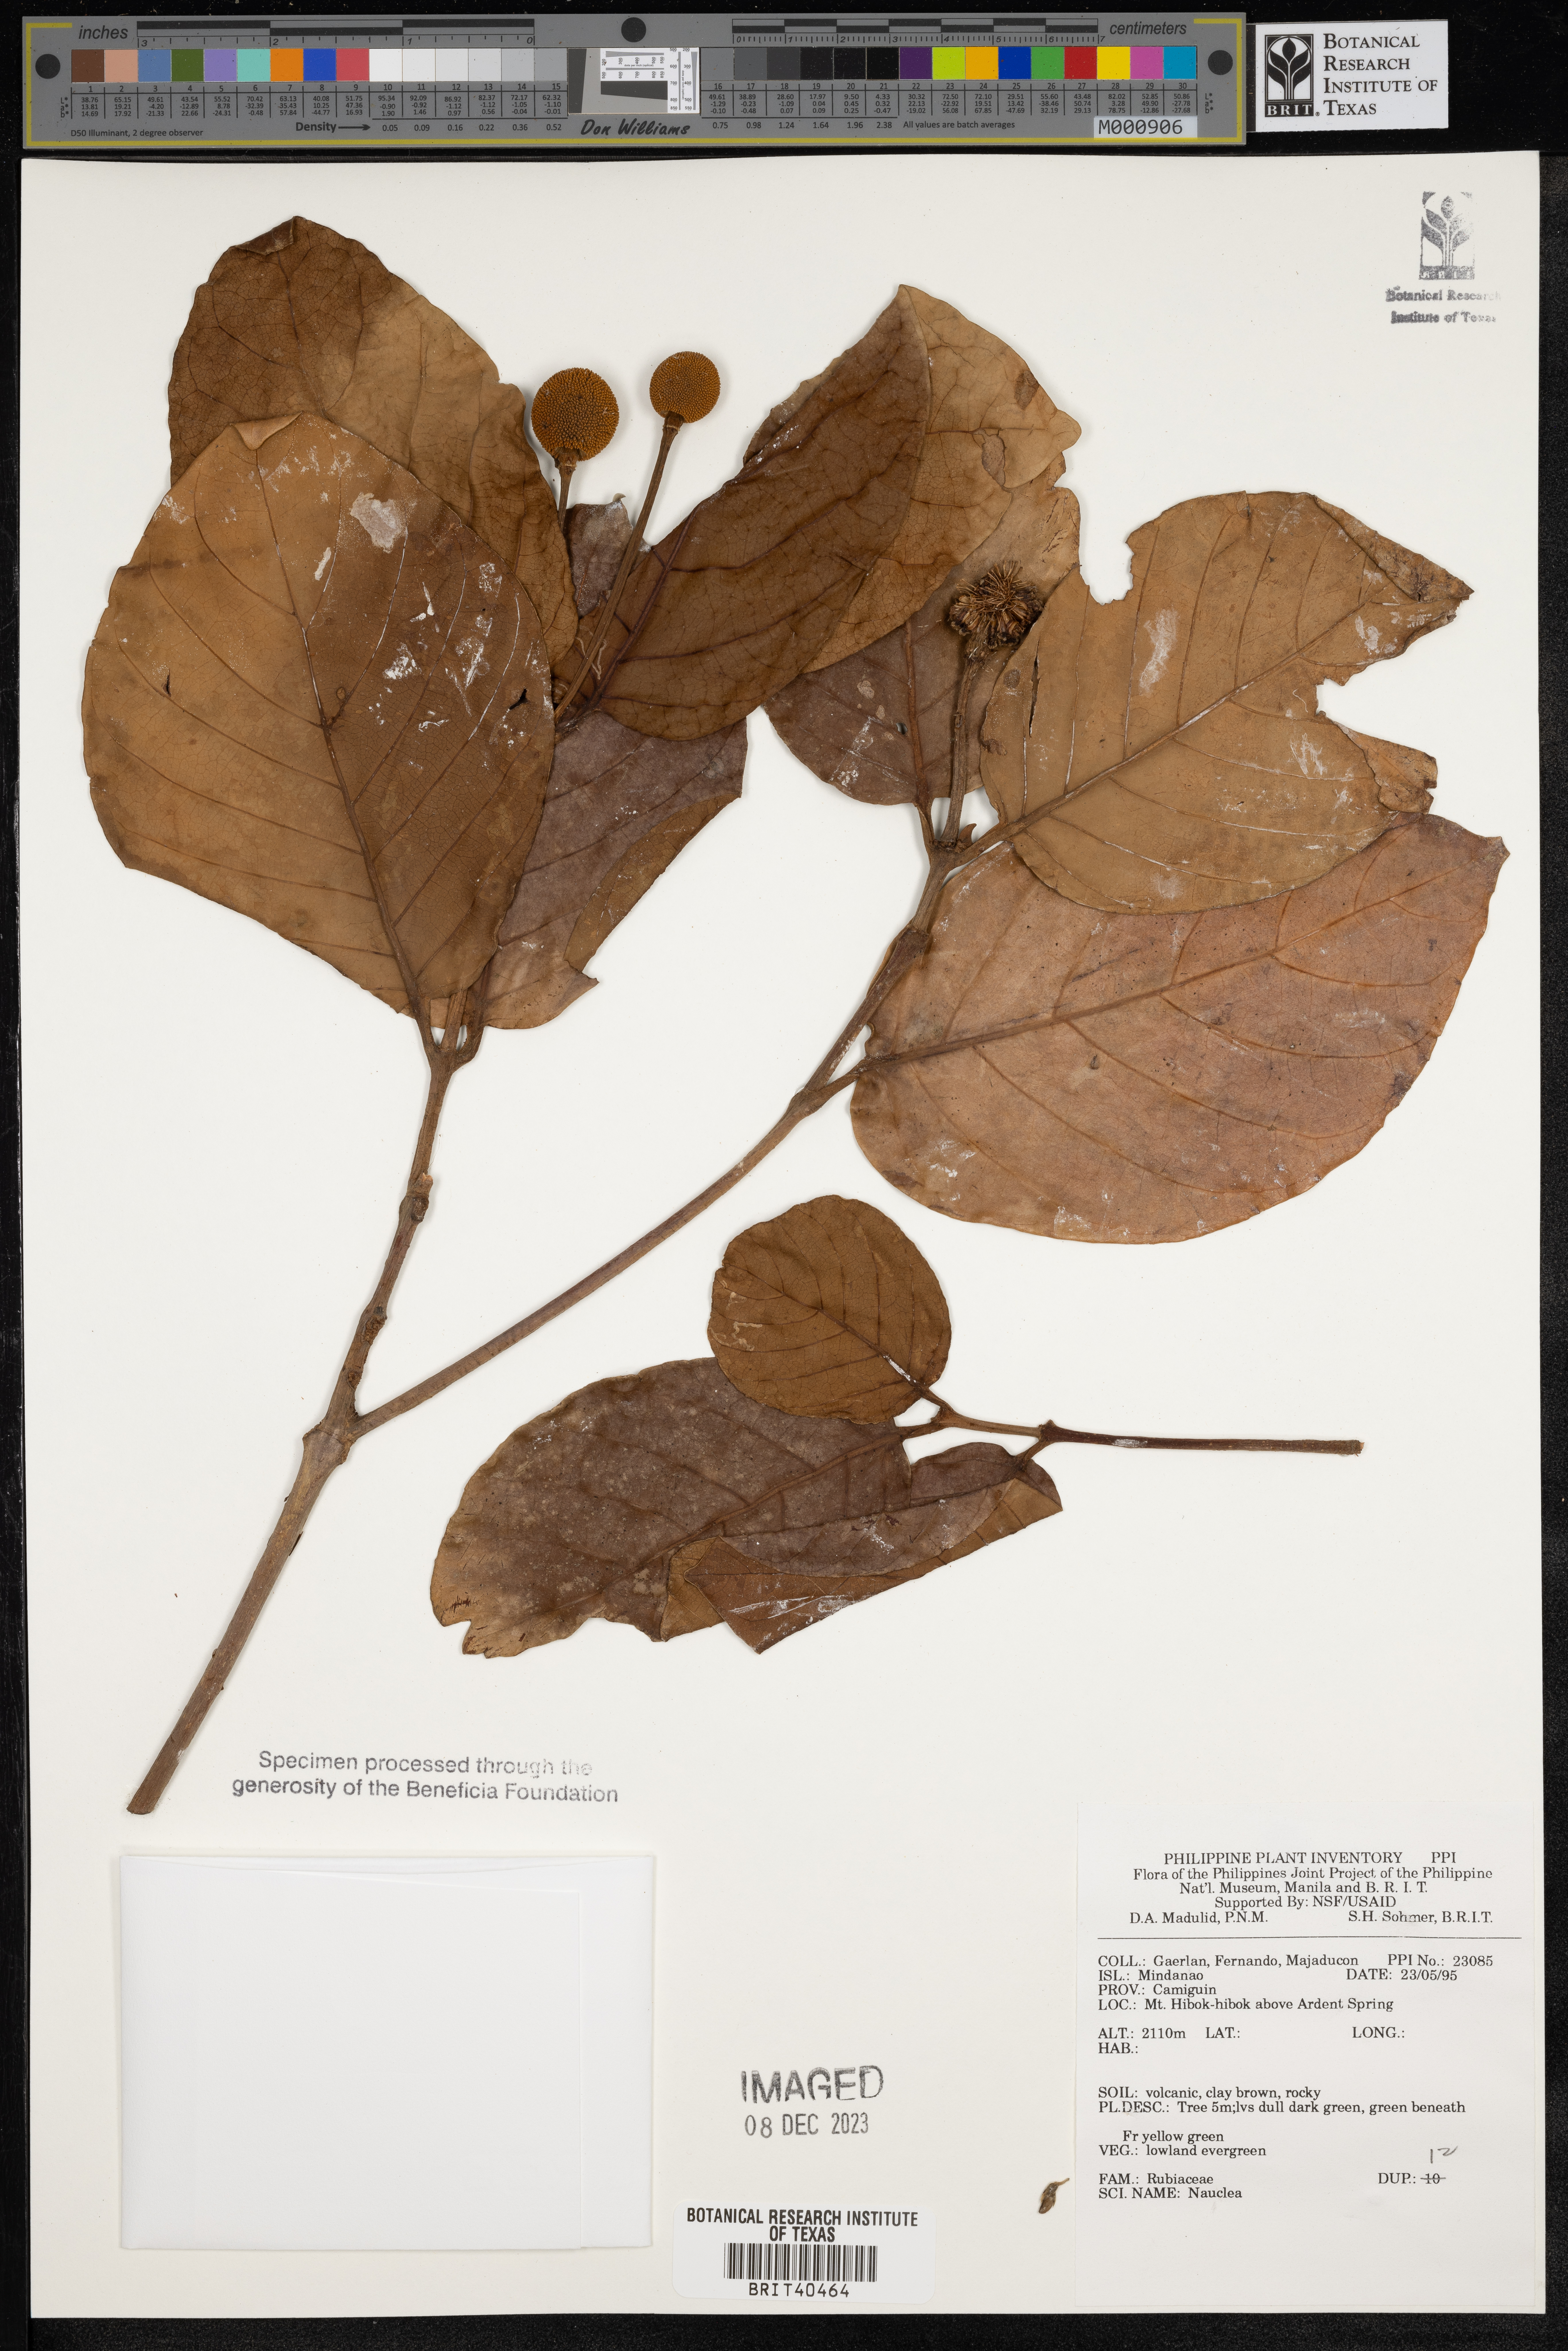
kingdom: Plantae
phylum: Tracheophyta
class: Magnoliopsida
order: Gentianales
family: Rubiaceae
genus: Nauclea
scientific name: Nauclea
